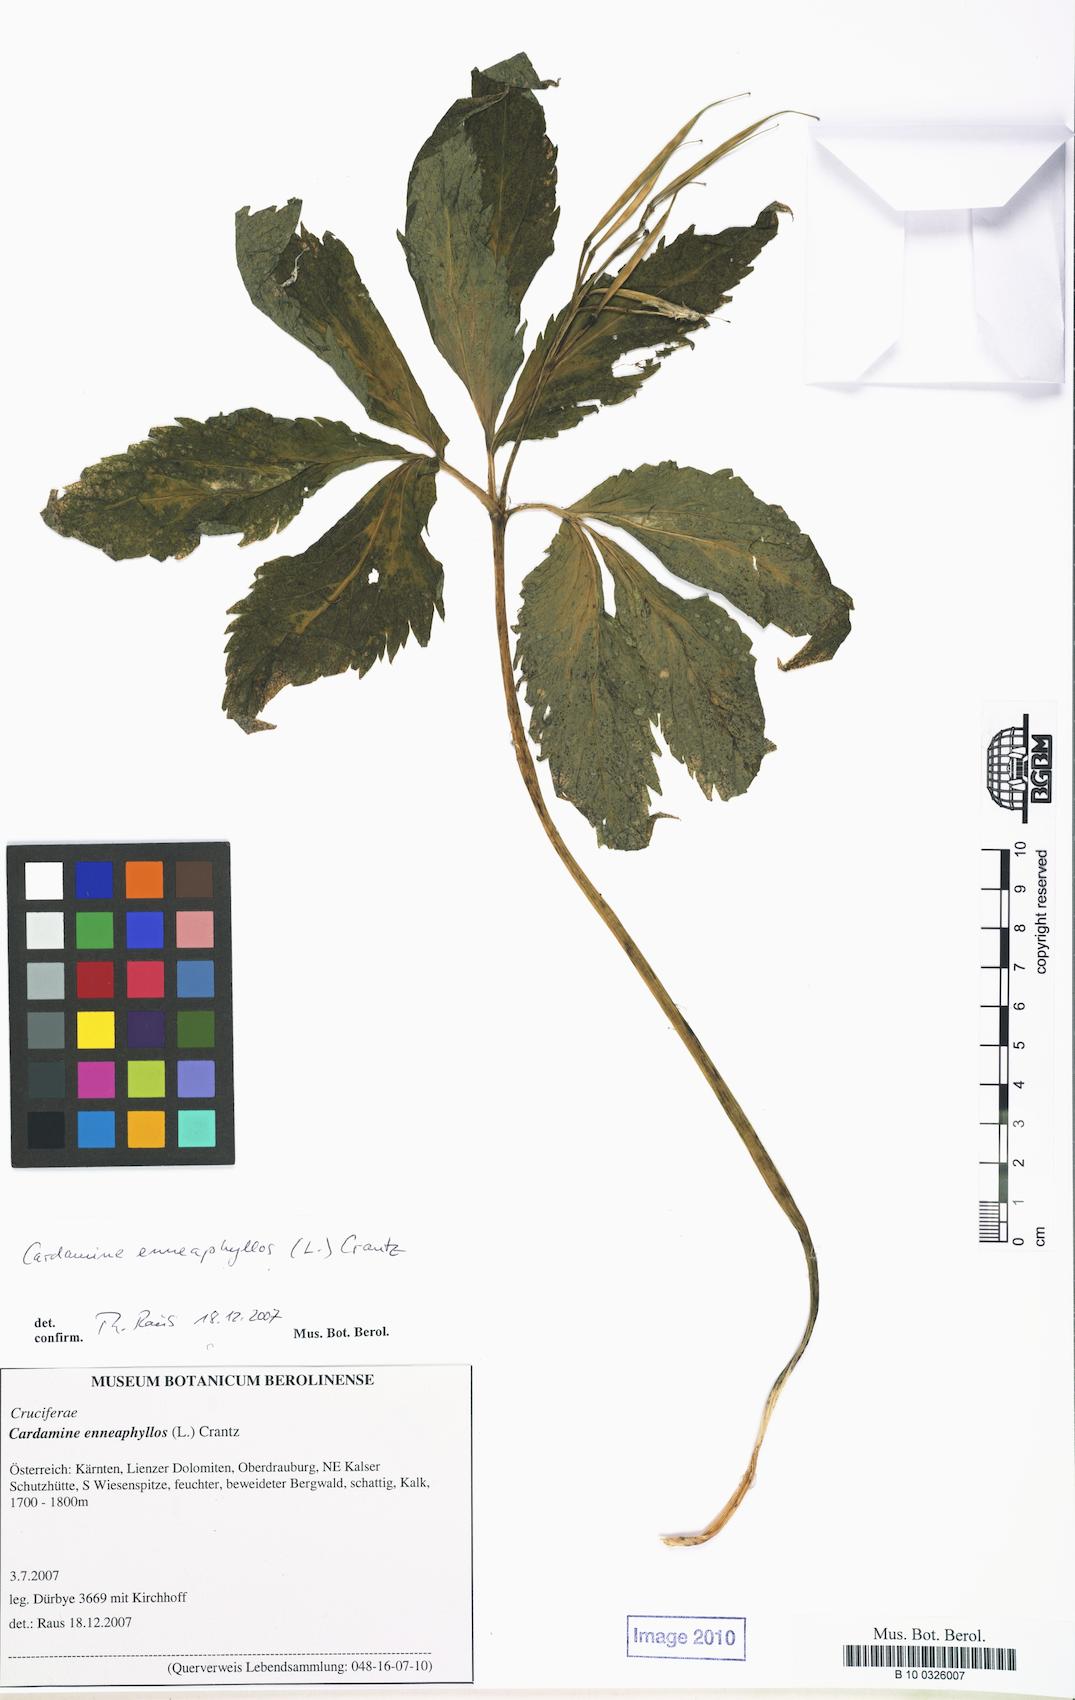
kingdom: Plantae
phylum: Tracheophyta
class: Magnoliopsida
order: Brassicales
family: Brassicaceae
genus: Cardamine
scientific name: Cardamine enneaphyllos
